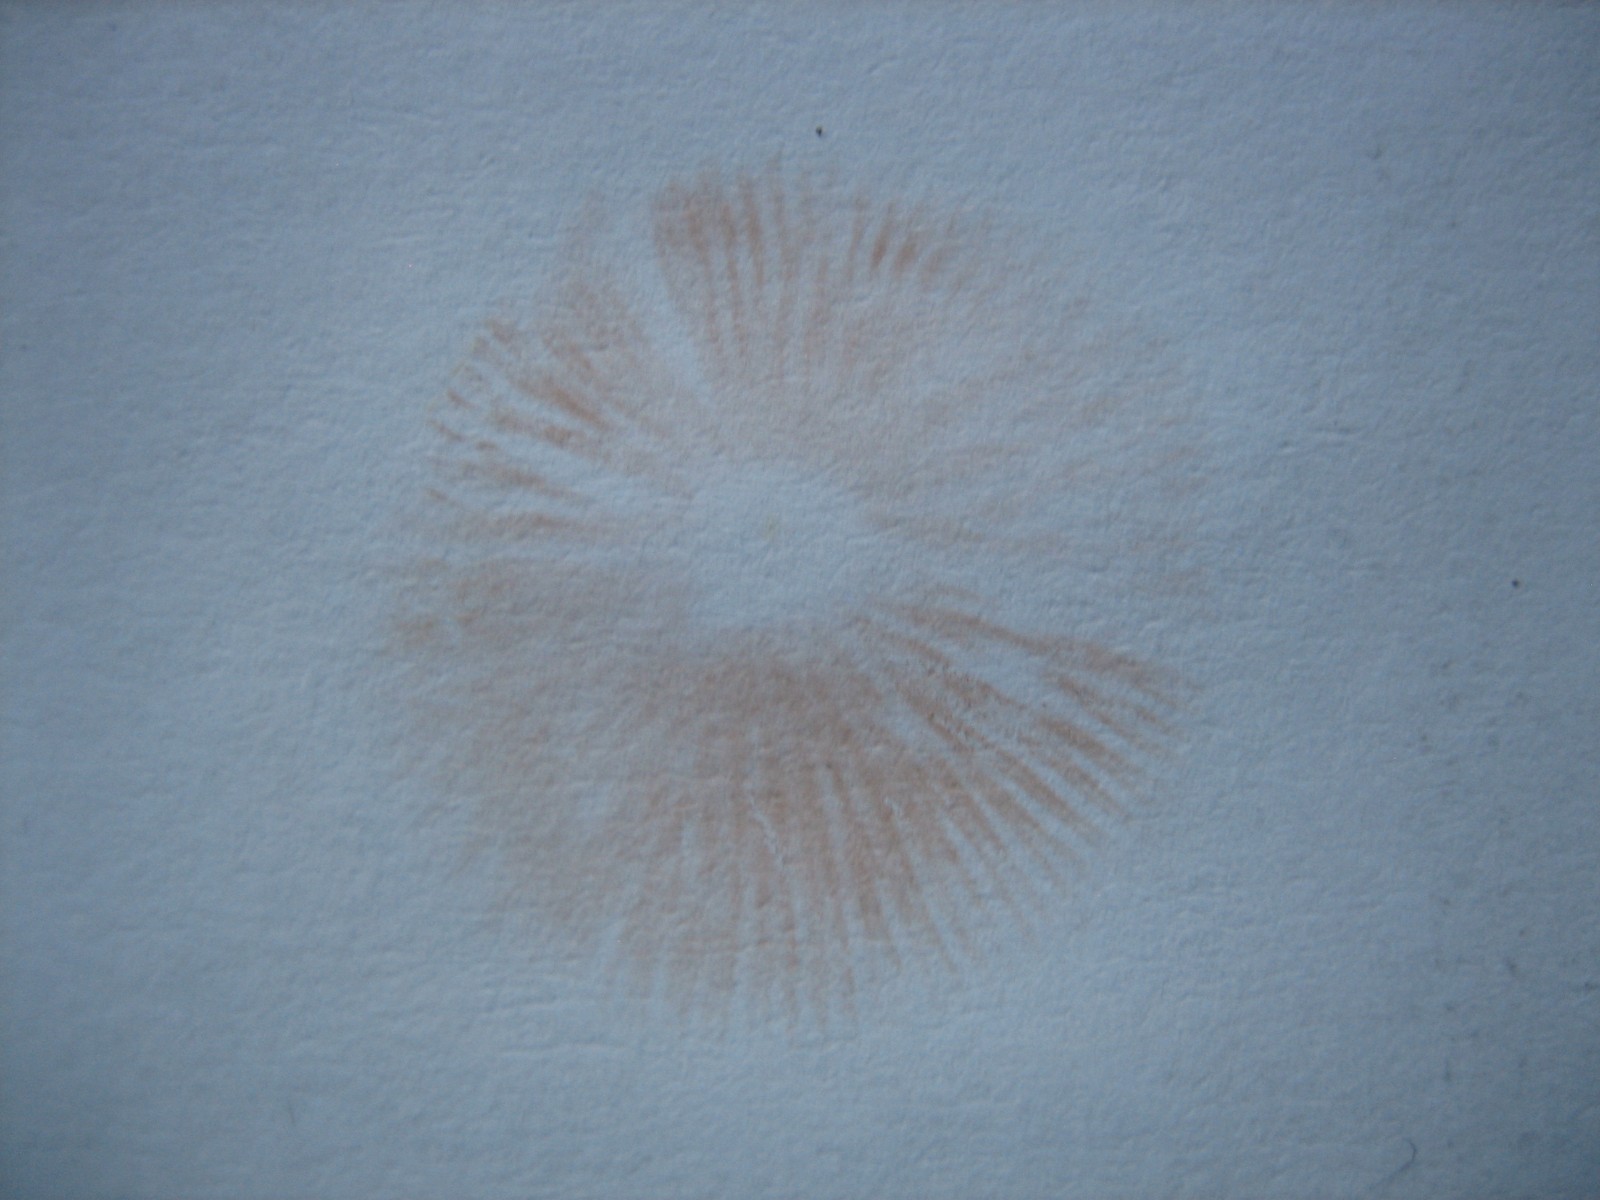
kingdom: Fungi
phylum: Basidiomycota
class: Agaricomycetes
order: Agaricales
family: Entolomataceae
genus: Entoloma
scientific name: Entoloma
